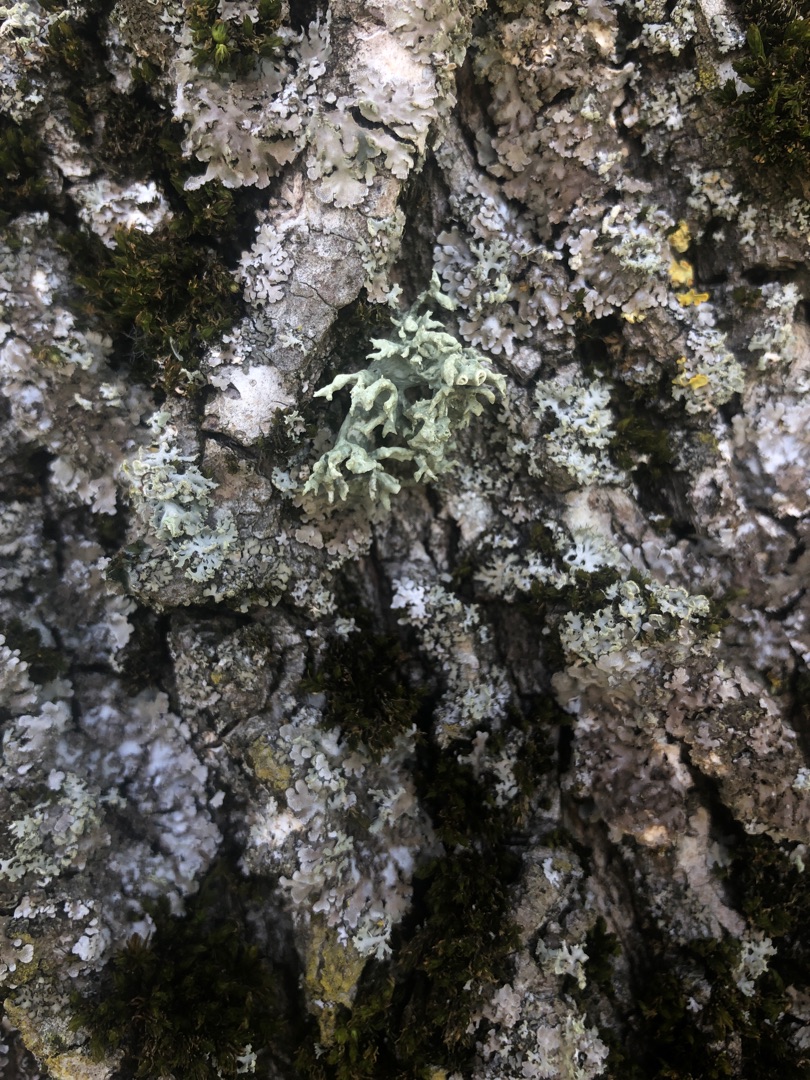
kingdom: Fungi
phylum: Ascomycota
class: Lecanoromycetes
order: Lecanorales
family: Ramalinaceae
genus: Ramalina
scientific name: Ramalina fastigiata
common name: Tue-grenlav
